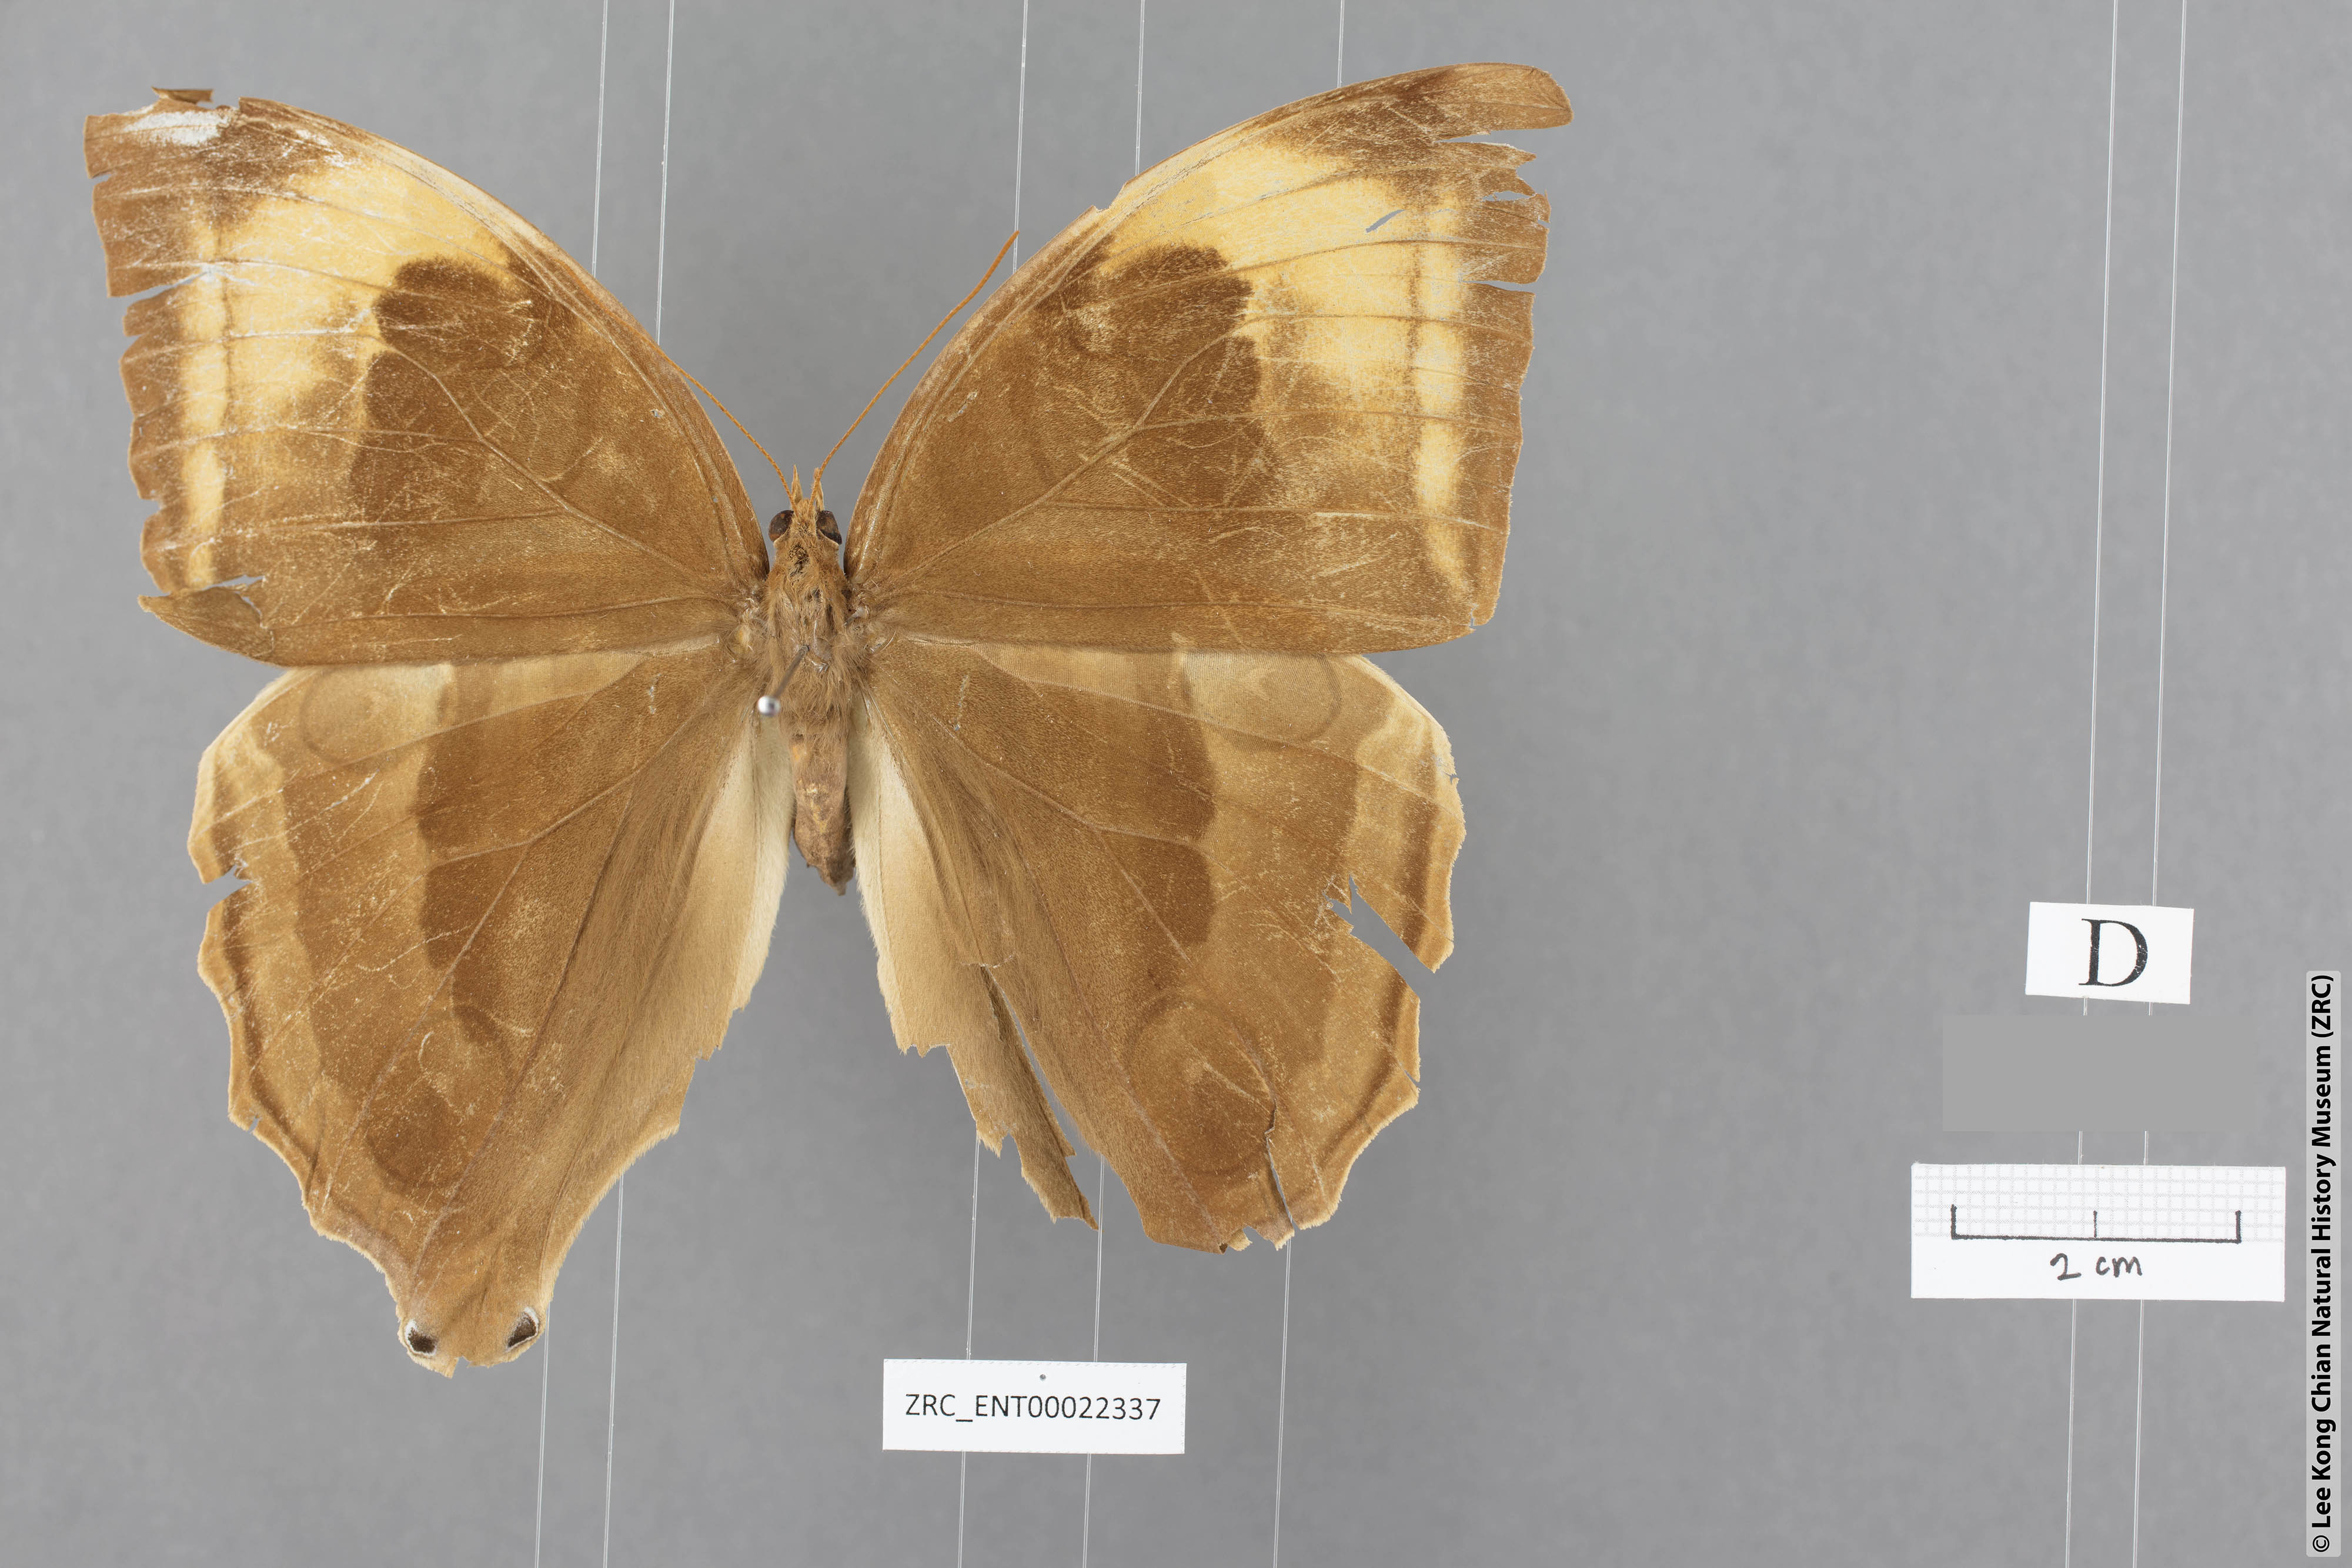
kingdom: Animalia
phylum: Arthropoda
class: Insecta
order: Lepidoptera
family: Nymphalidae
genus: Amathusia
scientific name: Amathusia
